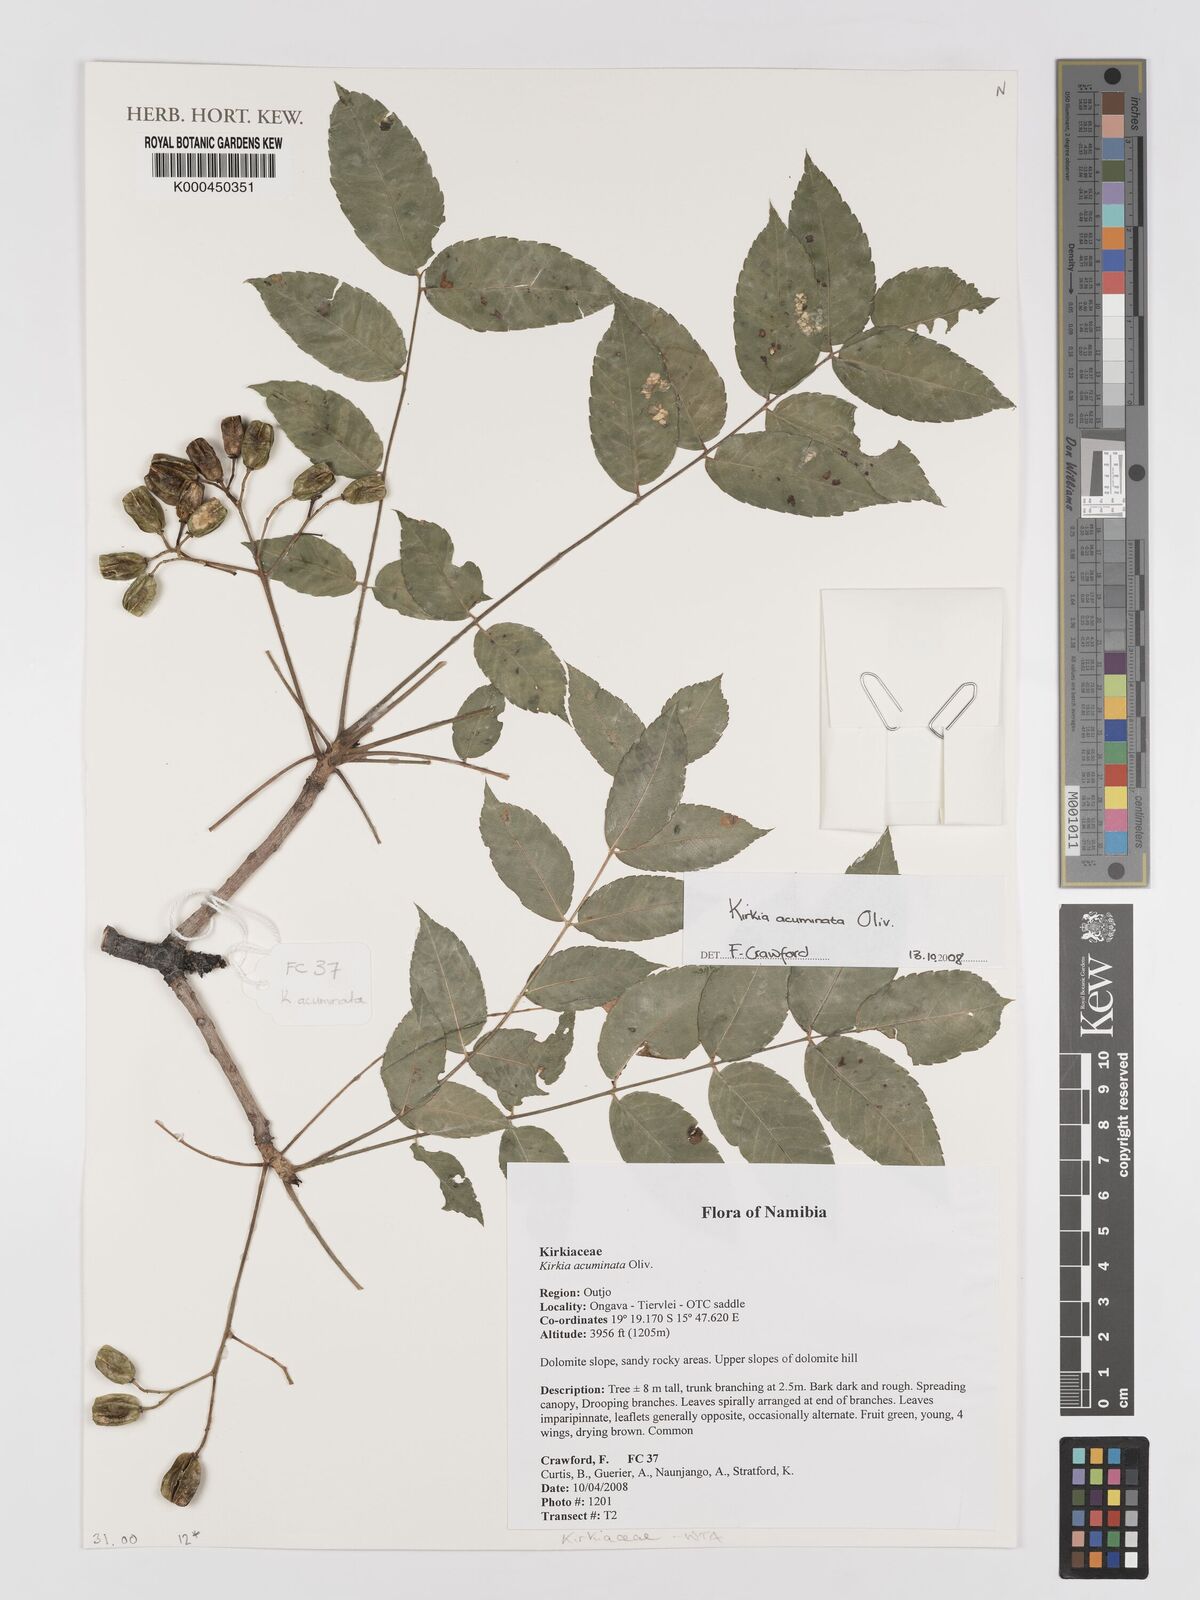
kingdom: Plantae
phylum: Tracheophyta
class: Magnoliopsida
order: Sapindales
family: Kirkiaceae
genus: Kirkia
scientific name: Kirkia acuminata
